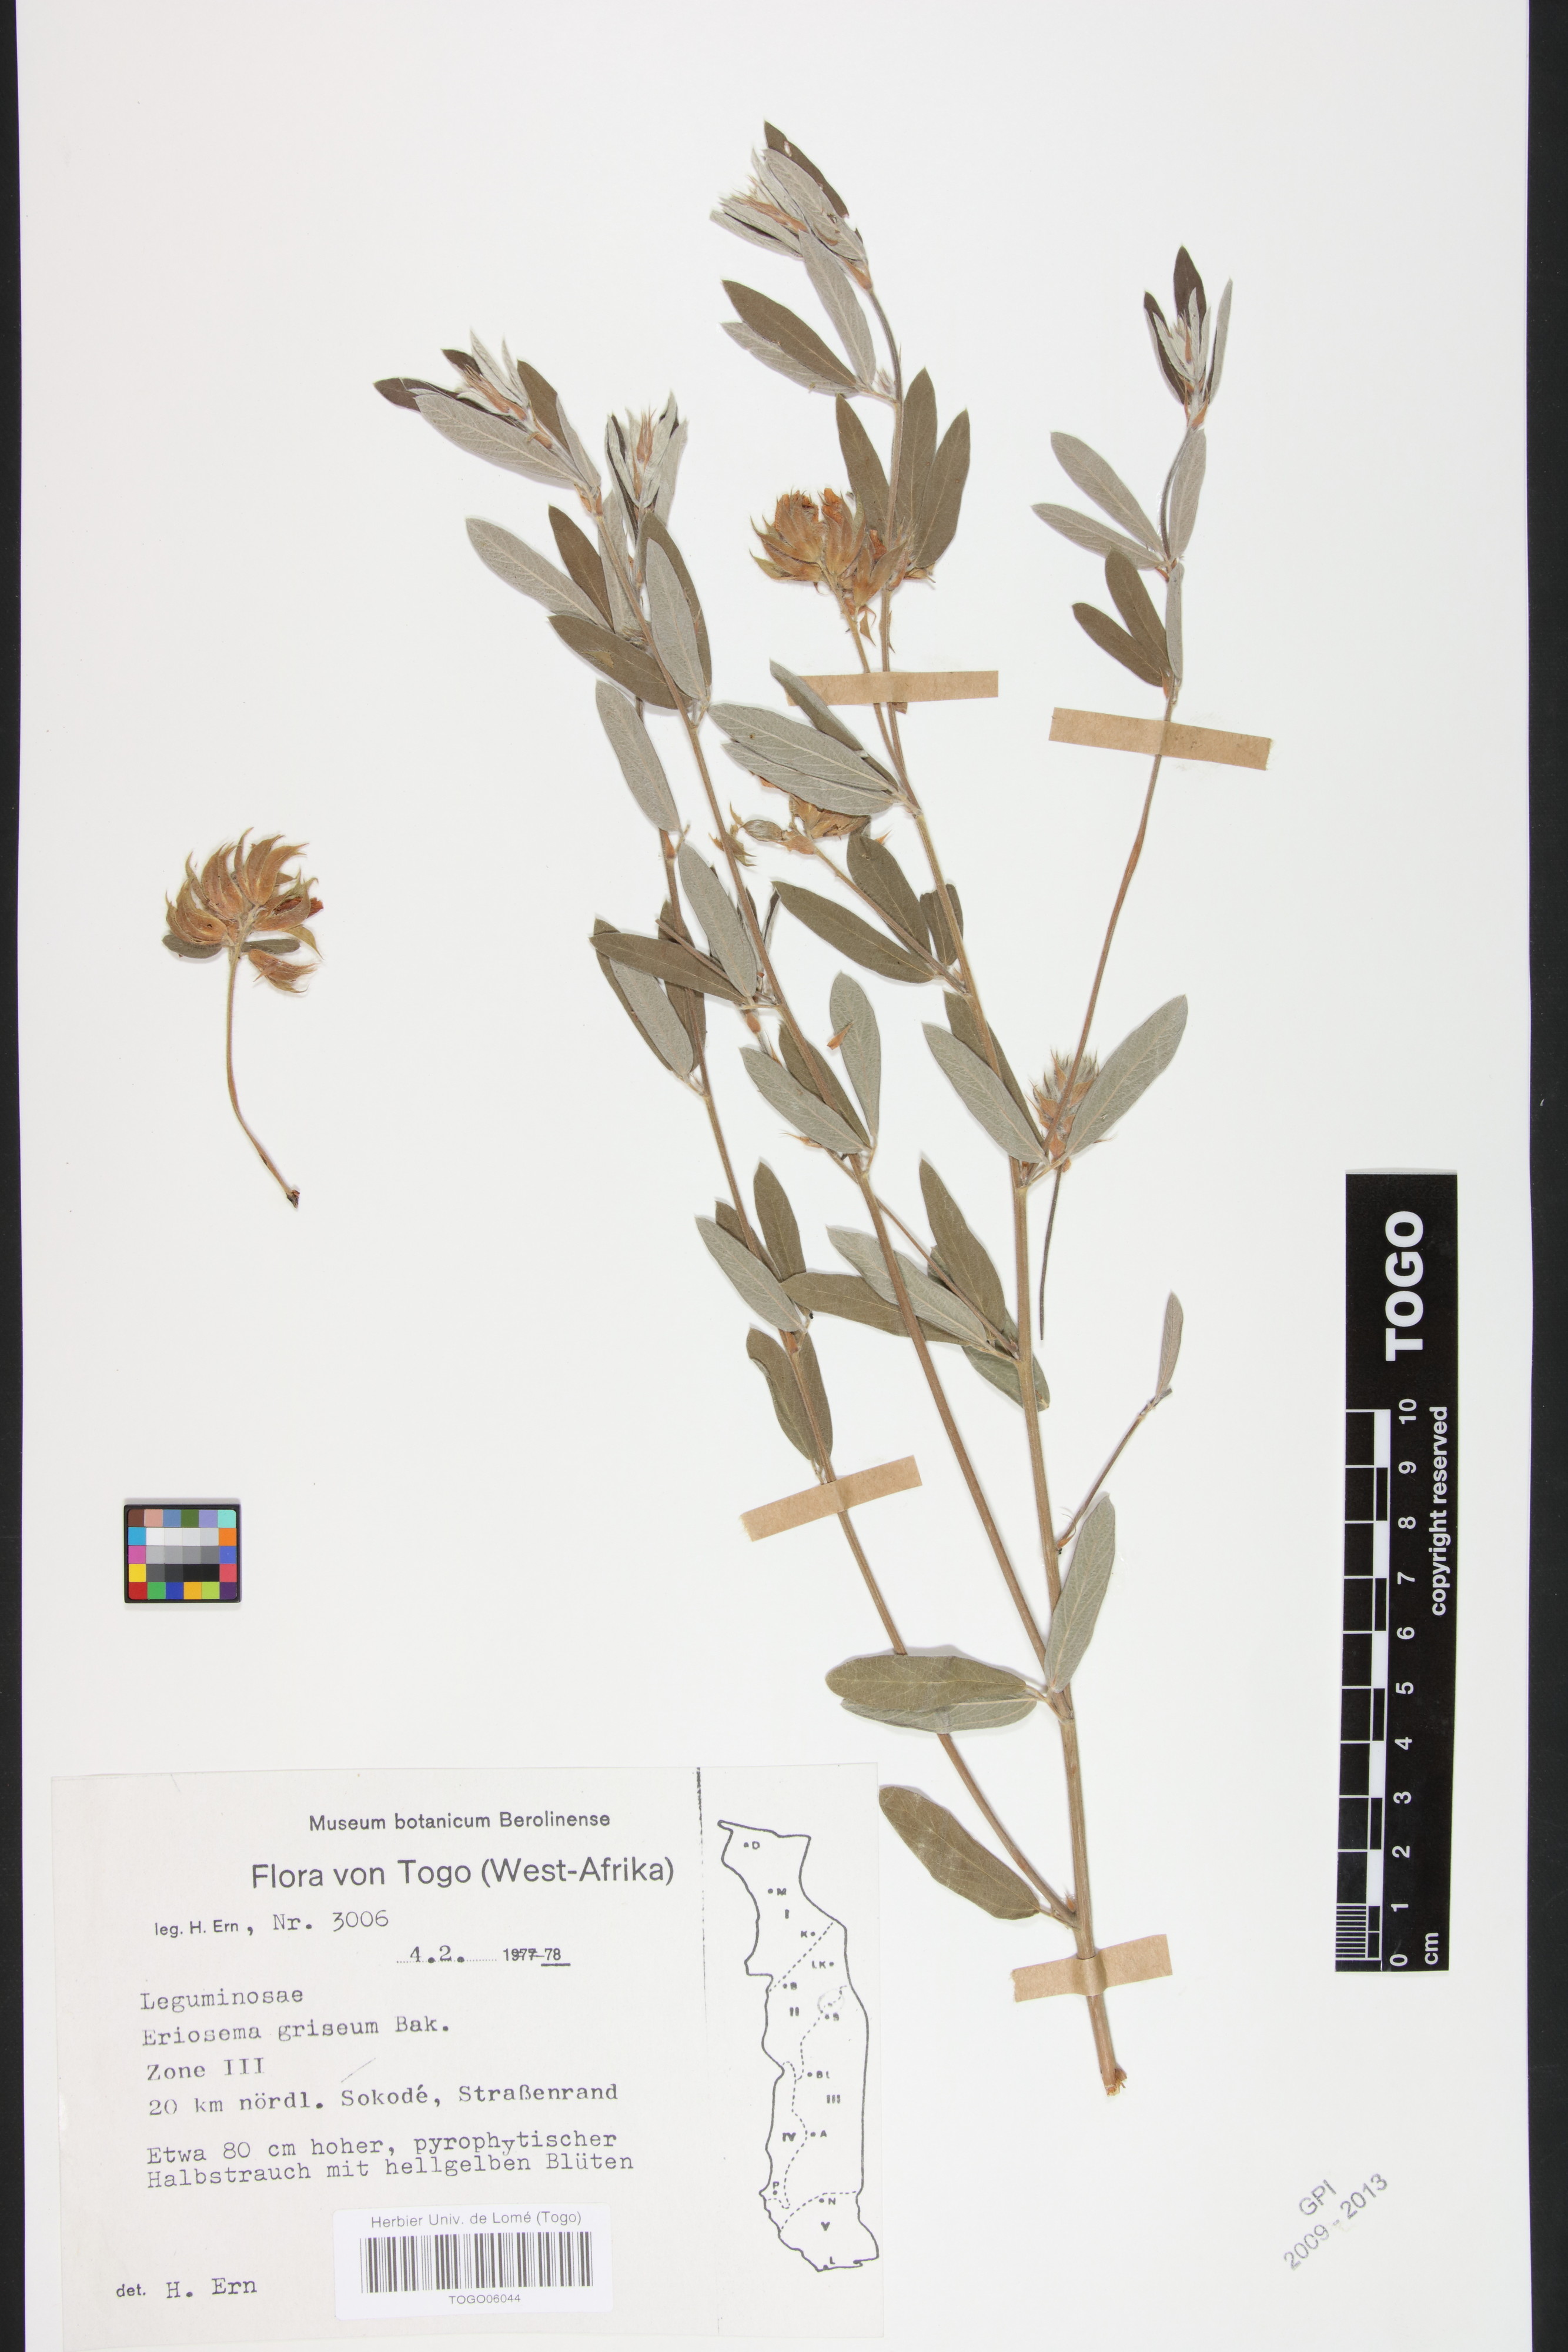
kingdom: Plantae
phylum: Tracheophyta
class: Magnoliopsida
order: Fabales
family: Fabaceae
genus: Eriosema
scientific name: Eriosema griseum
